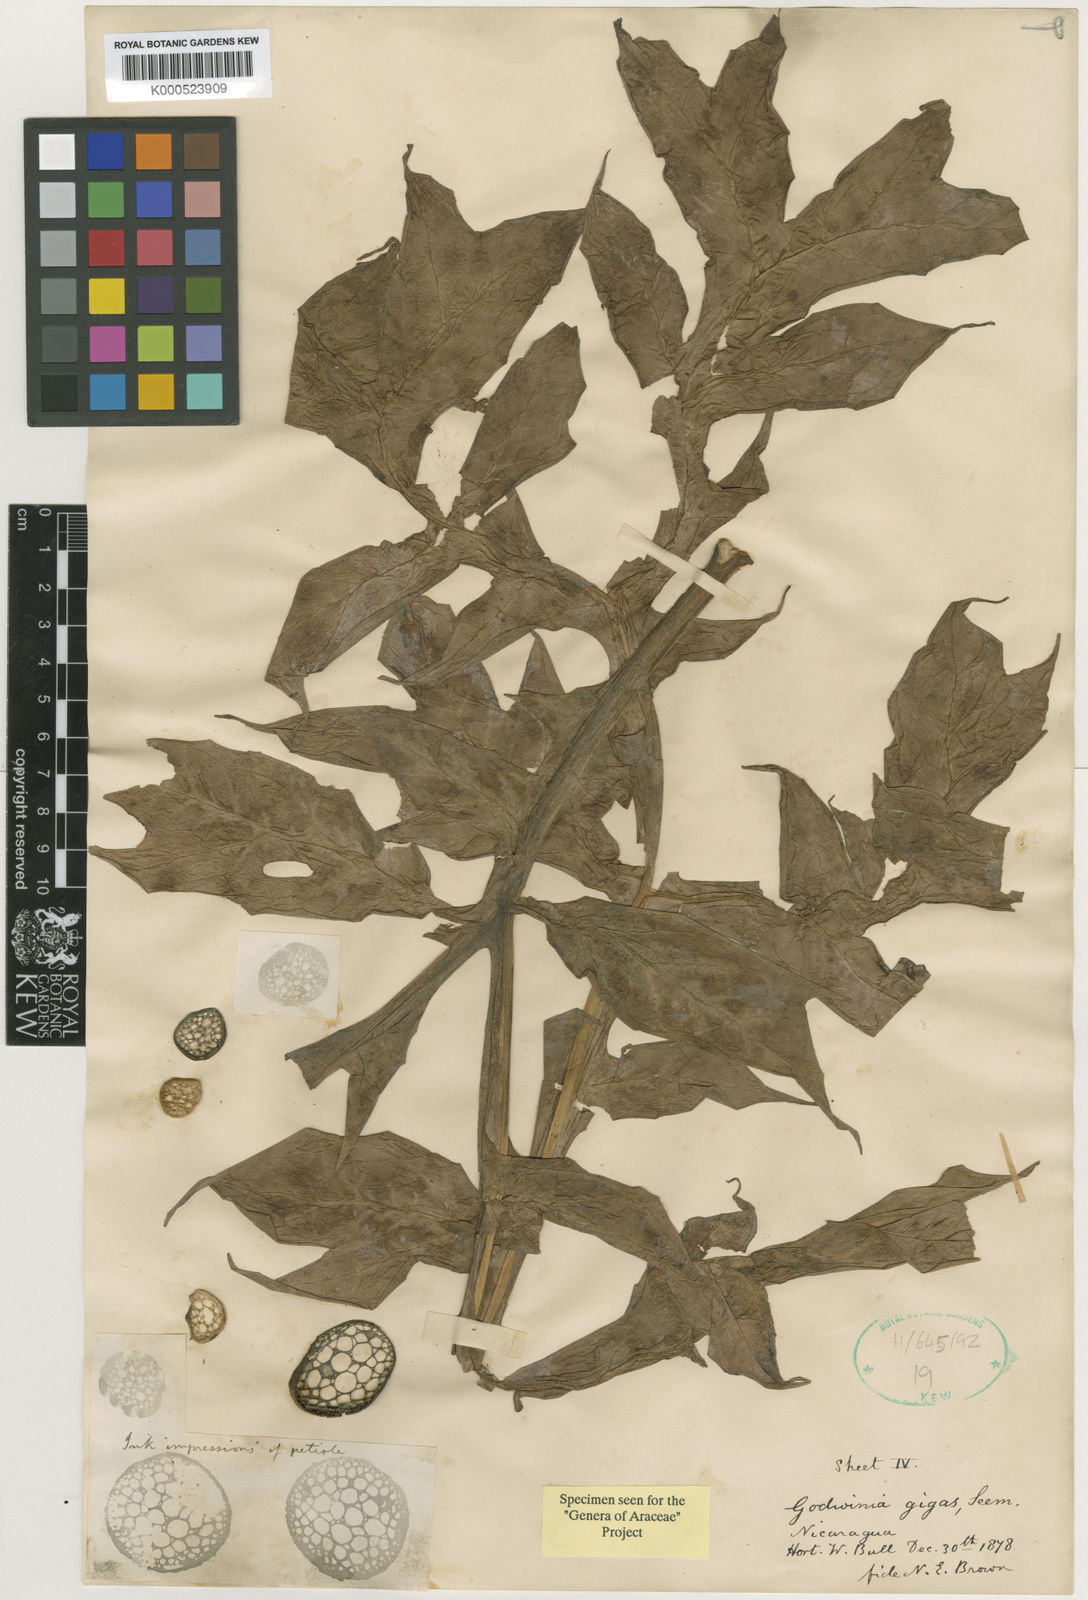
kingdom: Plantae
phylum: Tracheophyta
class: Liliopsida
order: Alismatales
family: Araceae
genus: Dracontium
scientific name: Dracontium gigas
